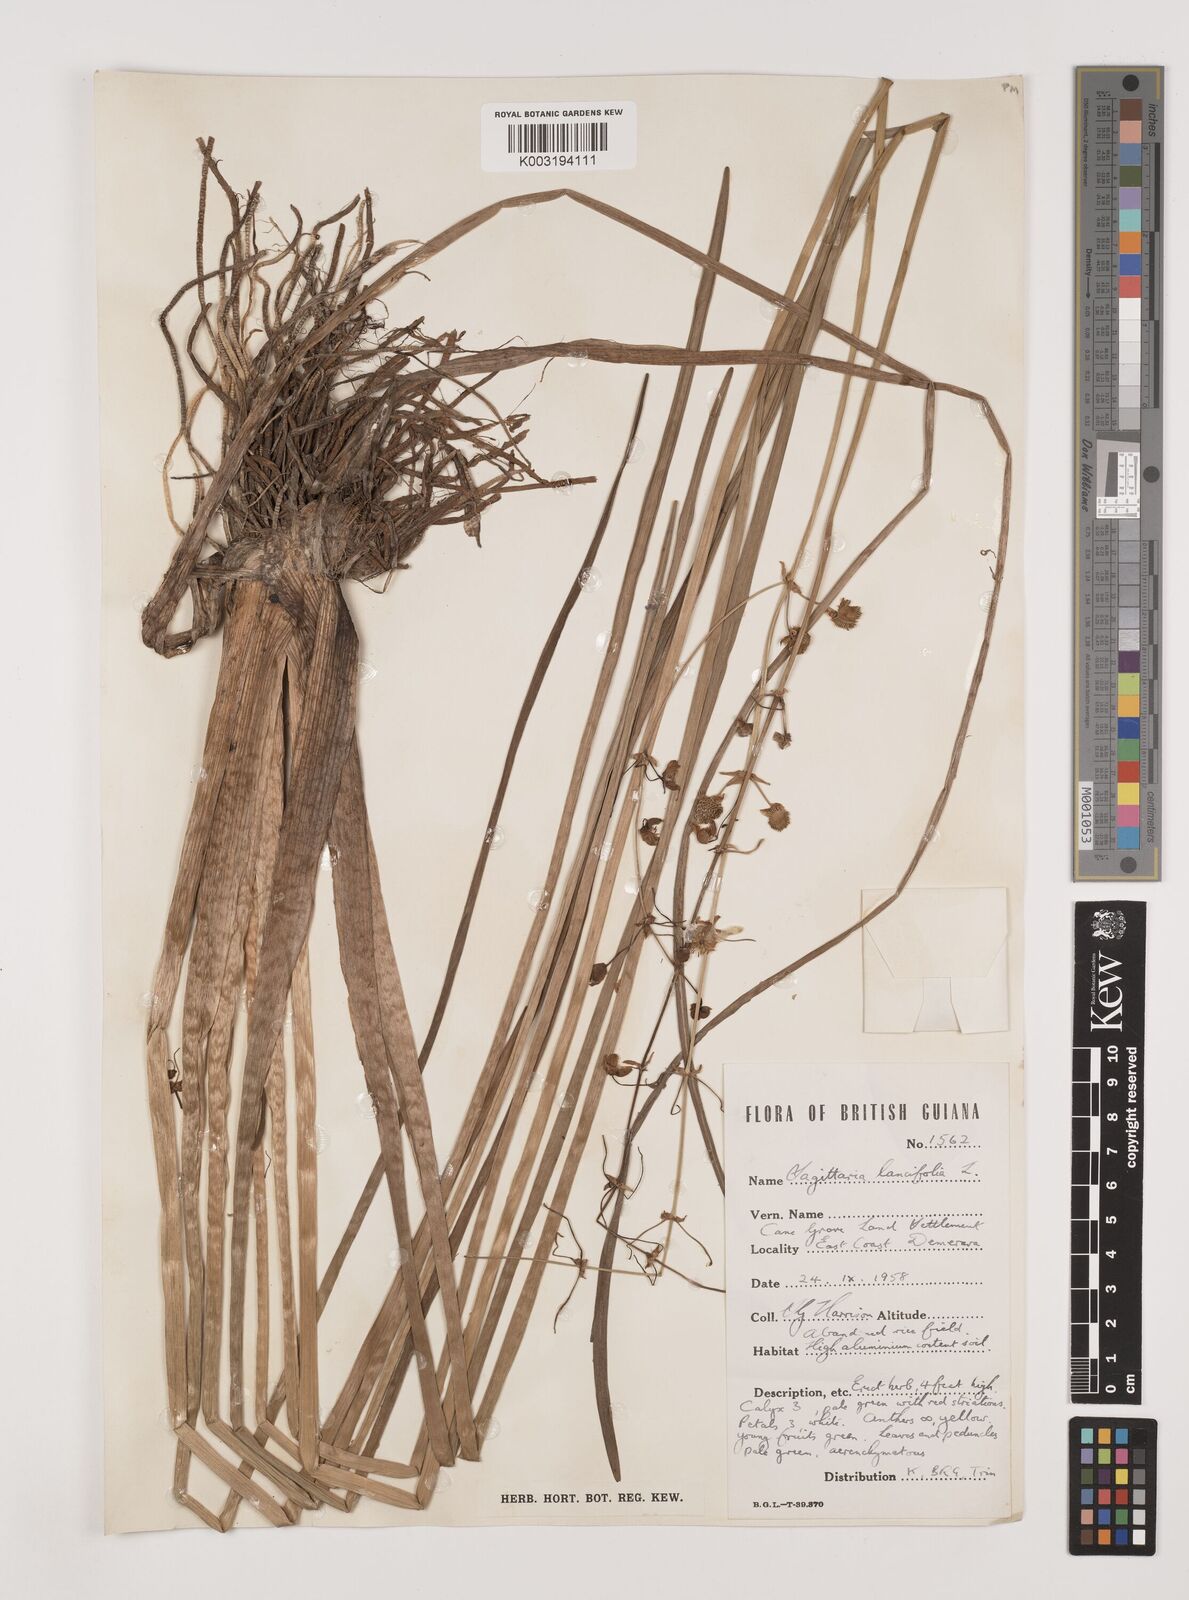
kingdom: Plantae
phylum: Tracheophyta
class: Liliopsida
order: Alismatales
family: Alismataceae
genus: Sagittaria
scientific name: Sagittaria lancifolia
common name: Lance-leaf arrowhead
